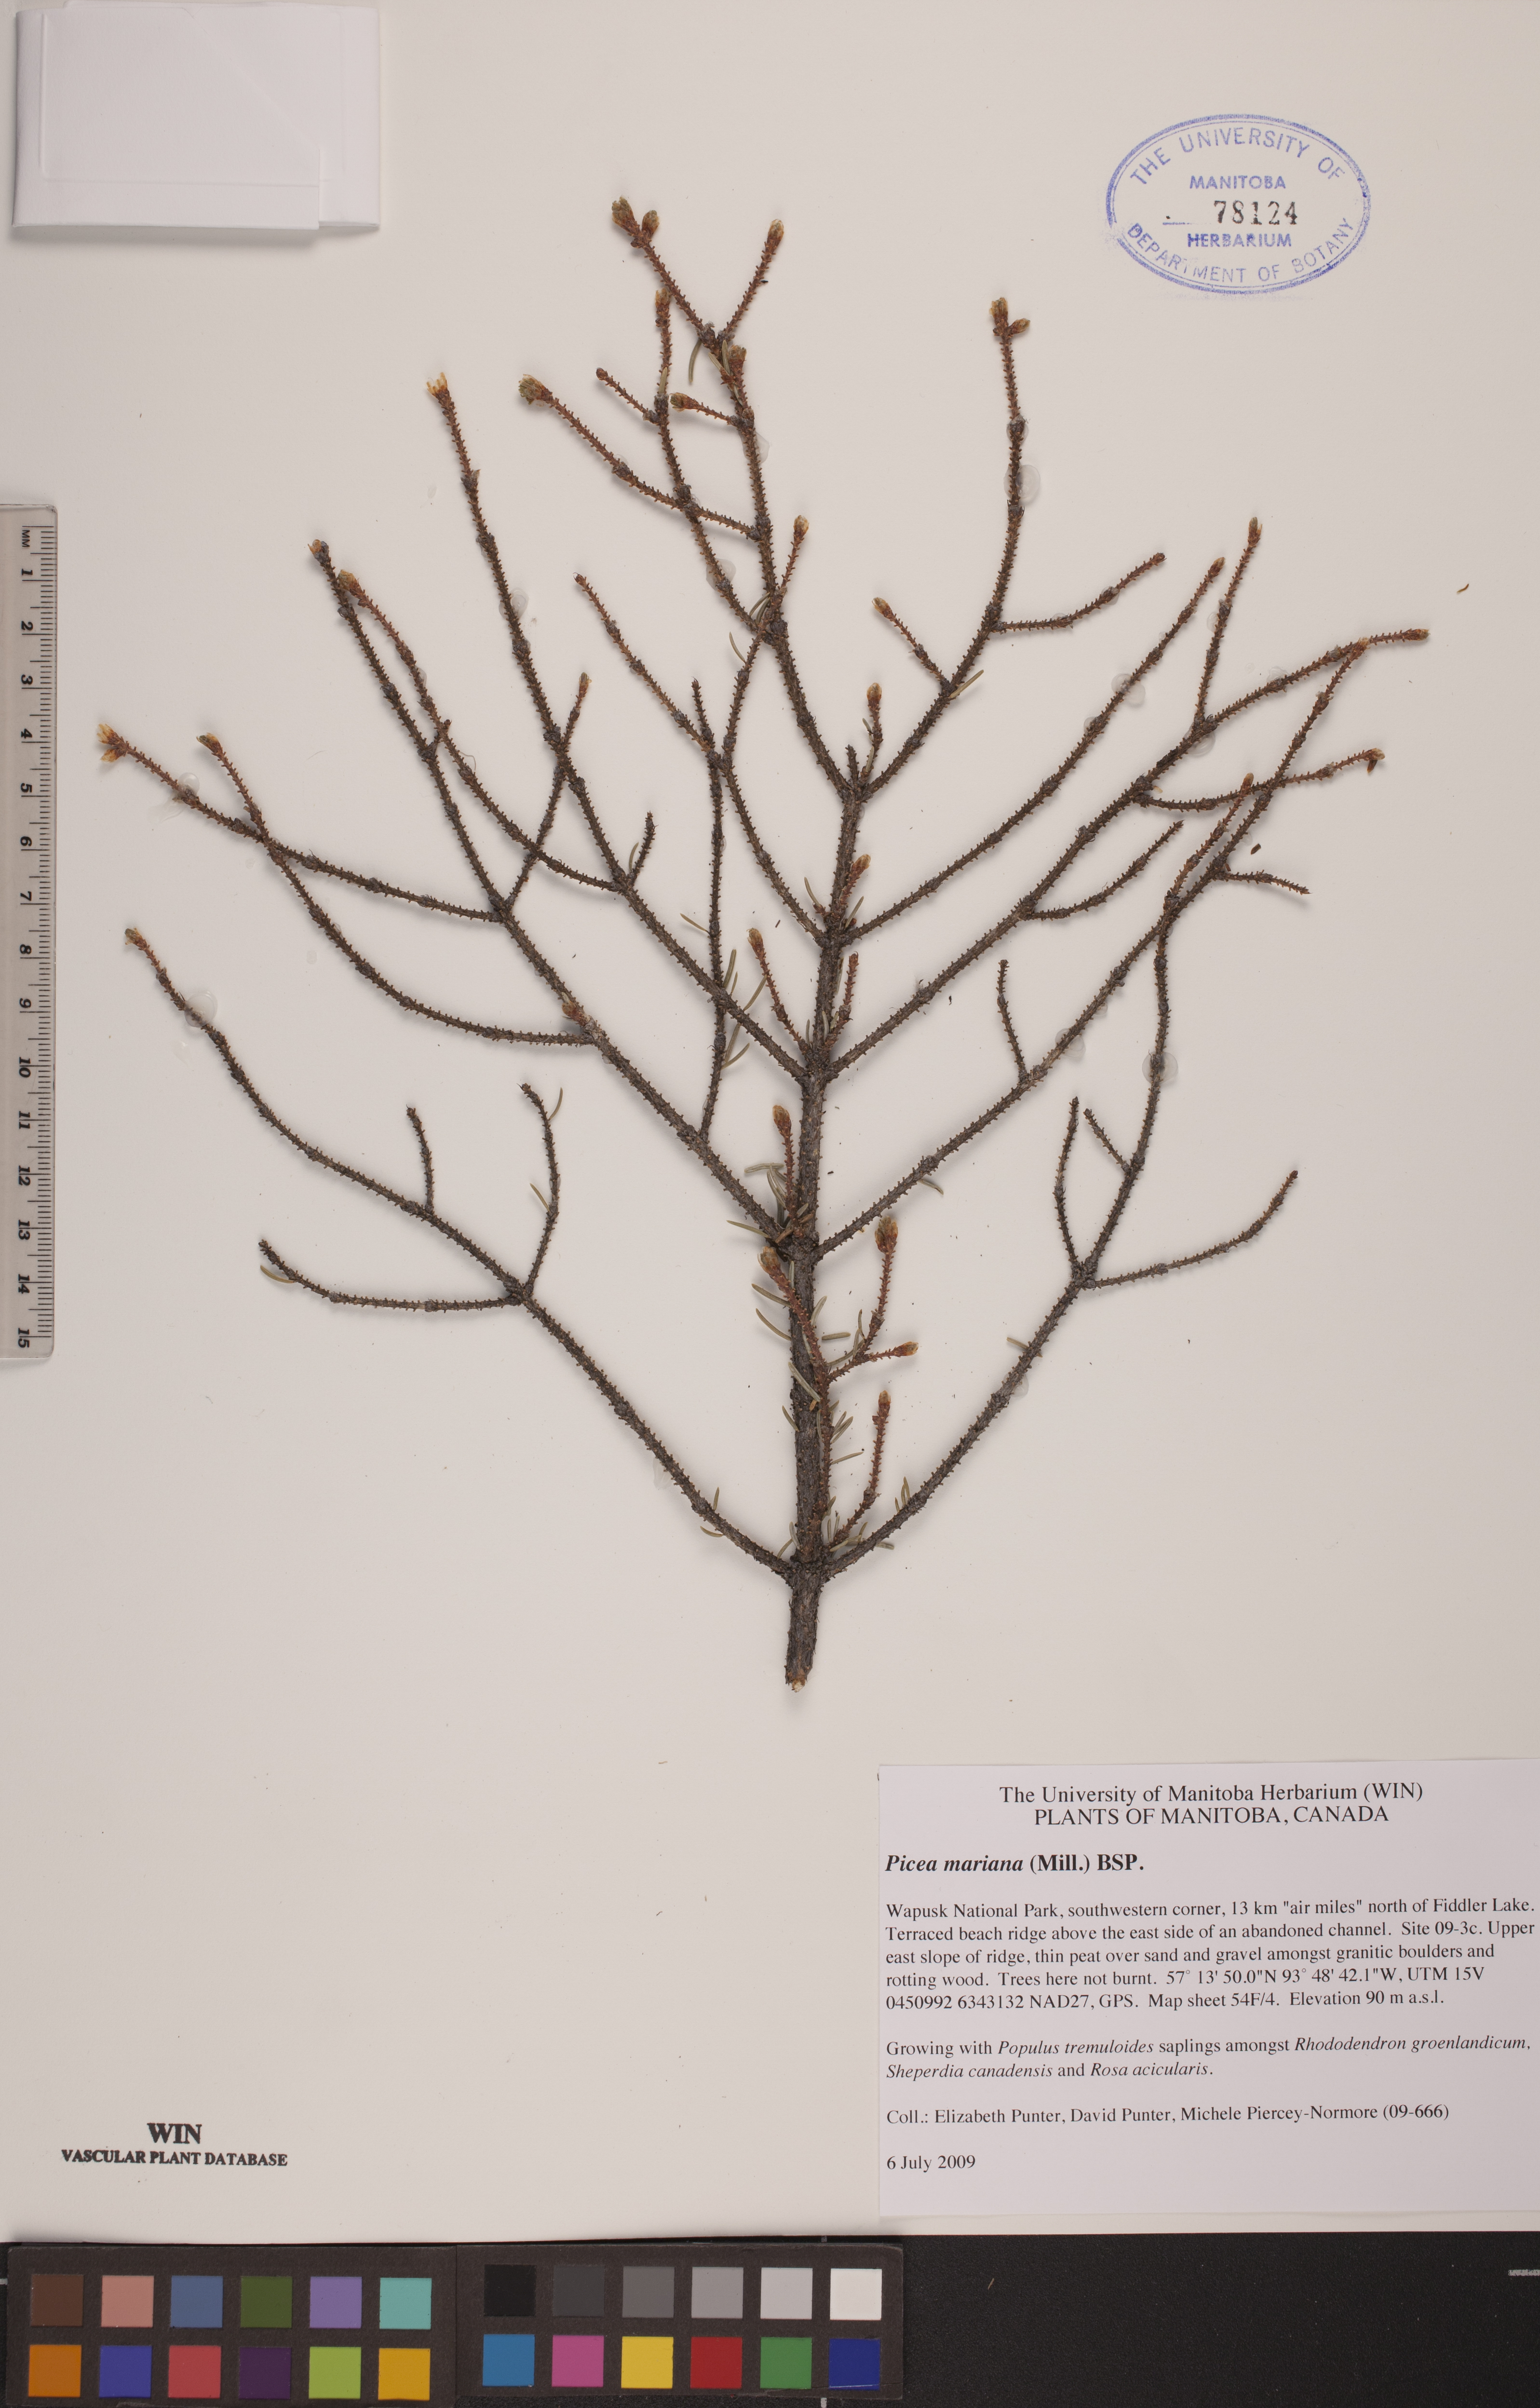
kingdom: Plantae
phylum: Tracheophyta
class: Pinopsida
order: Pinales
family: Pinaceae
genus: Picea
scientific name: Picea mariana
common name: Black spruce
